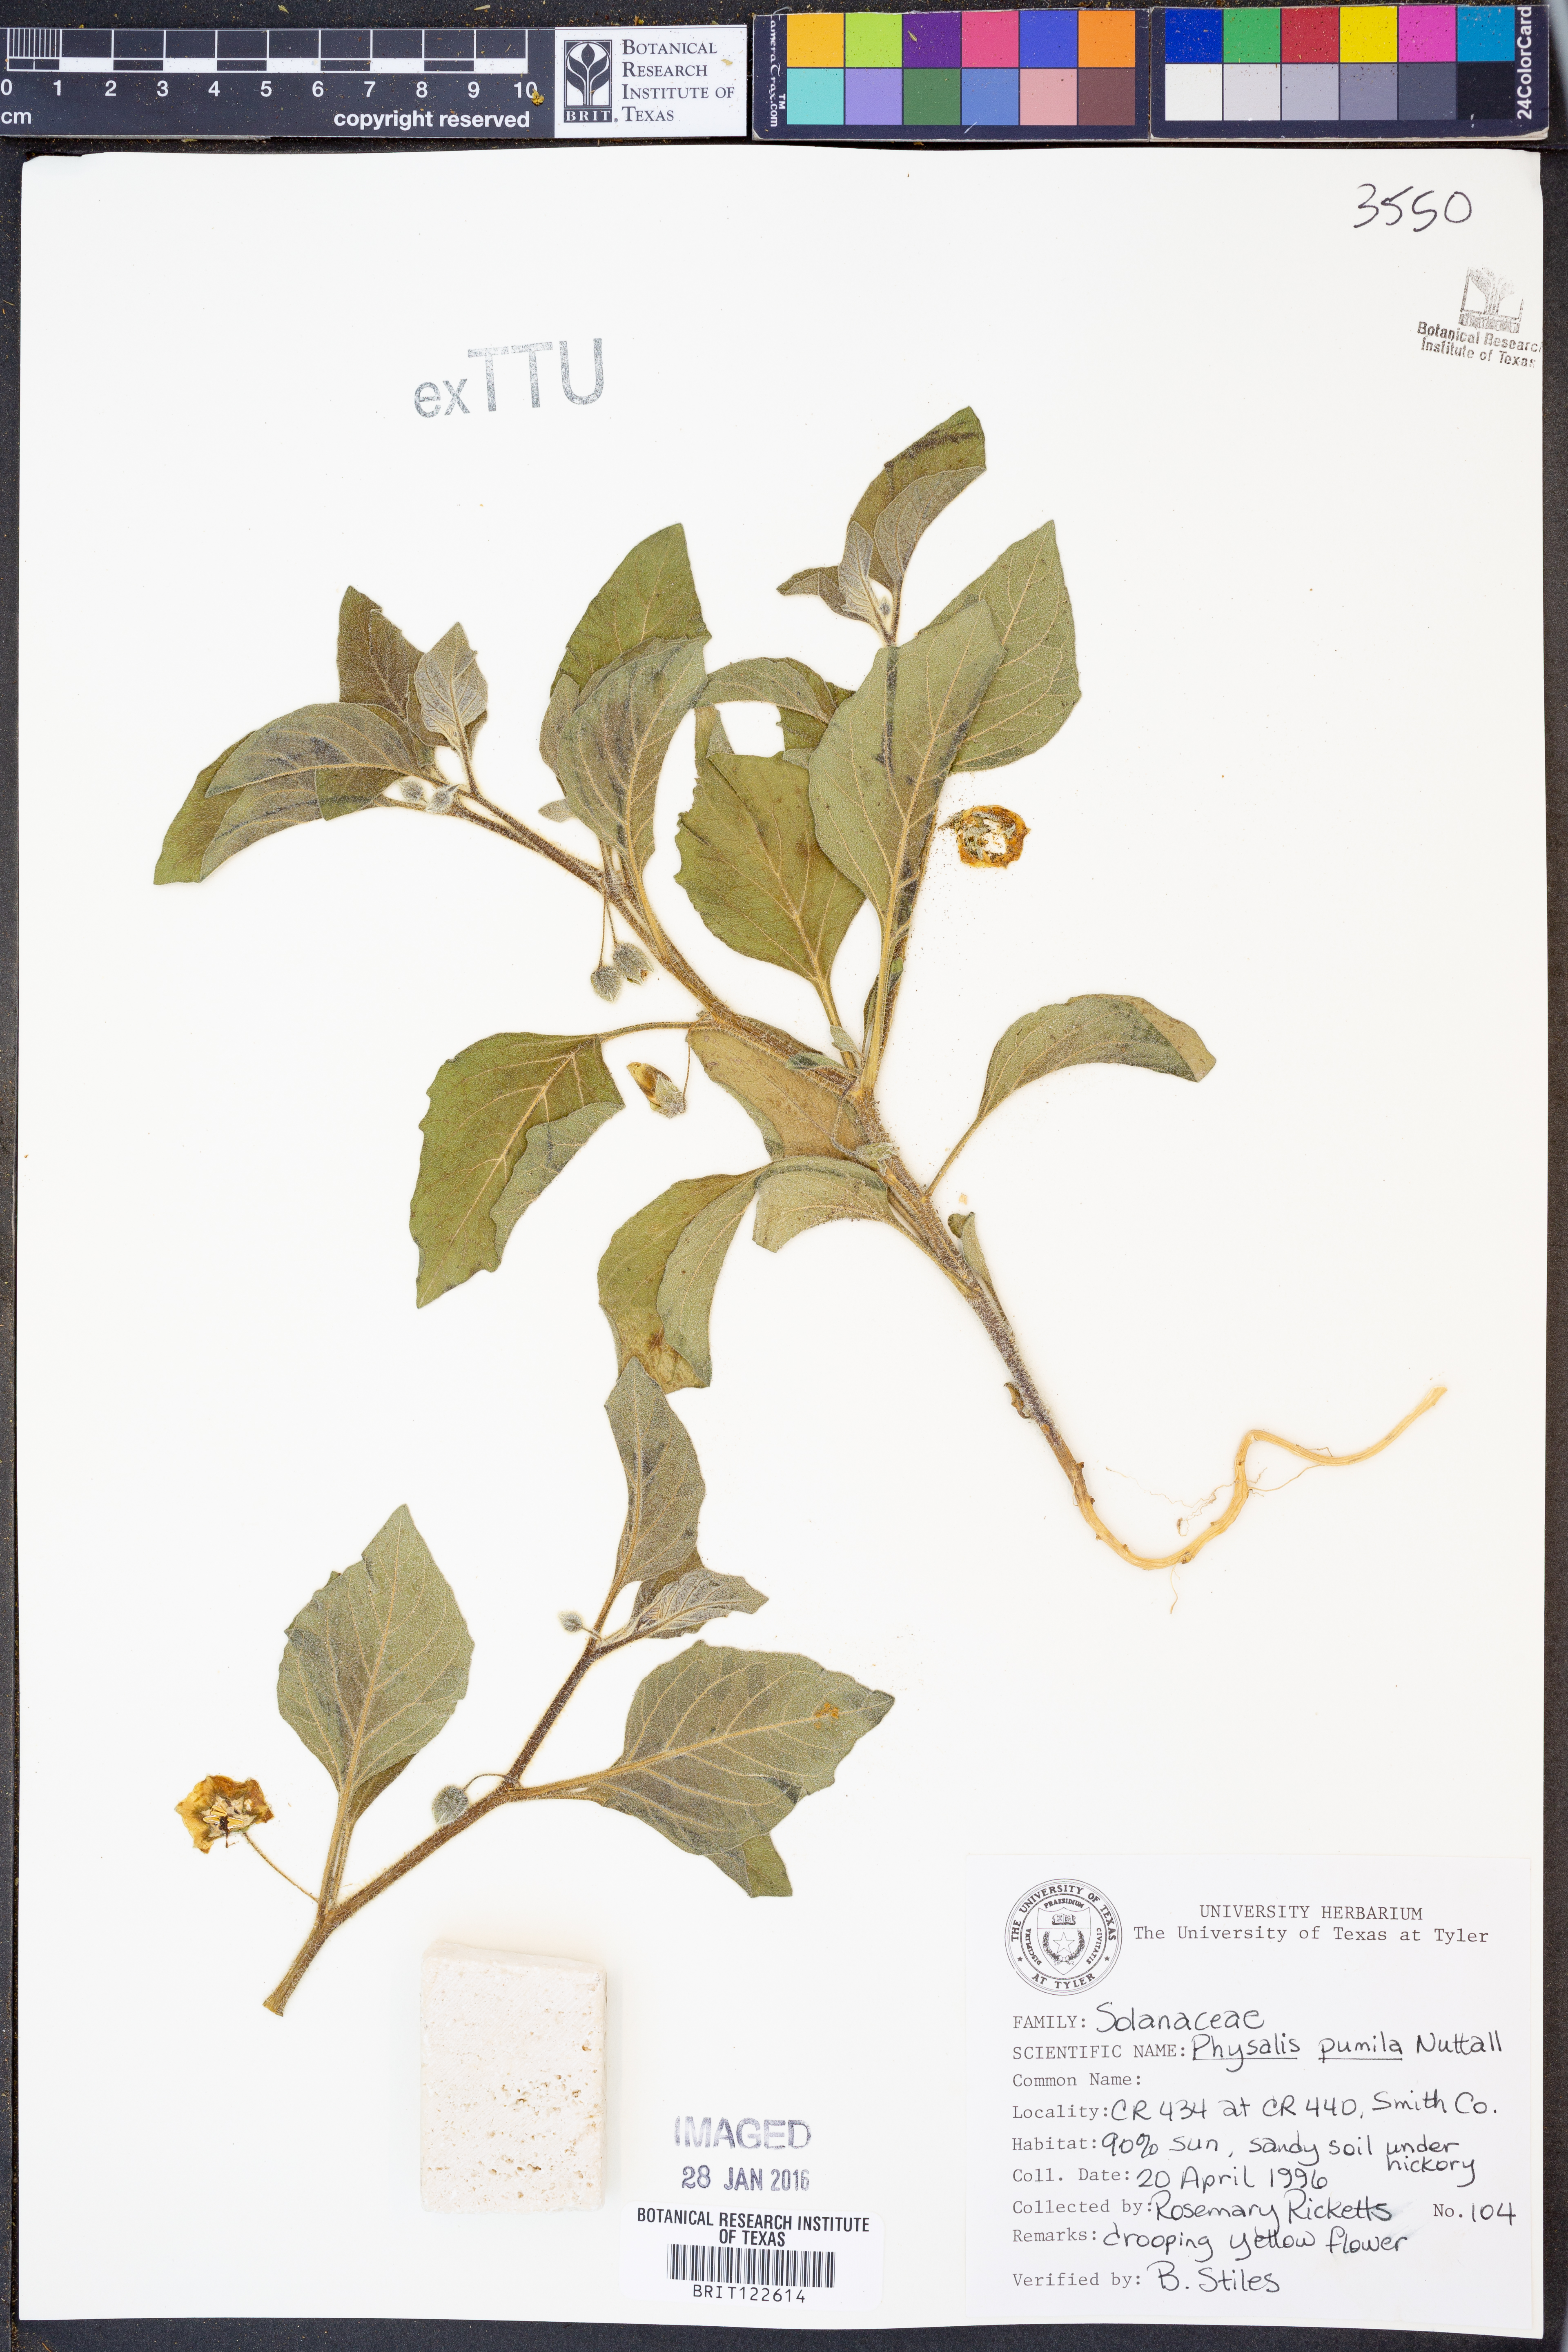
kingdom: Plantae
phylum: Tracheophyta
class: Magnoliopsida
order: Solanales
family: Solanaceae
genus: Physalis
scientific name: Physalis pumila
